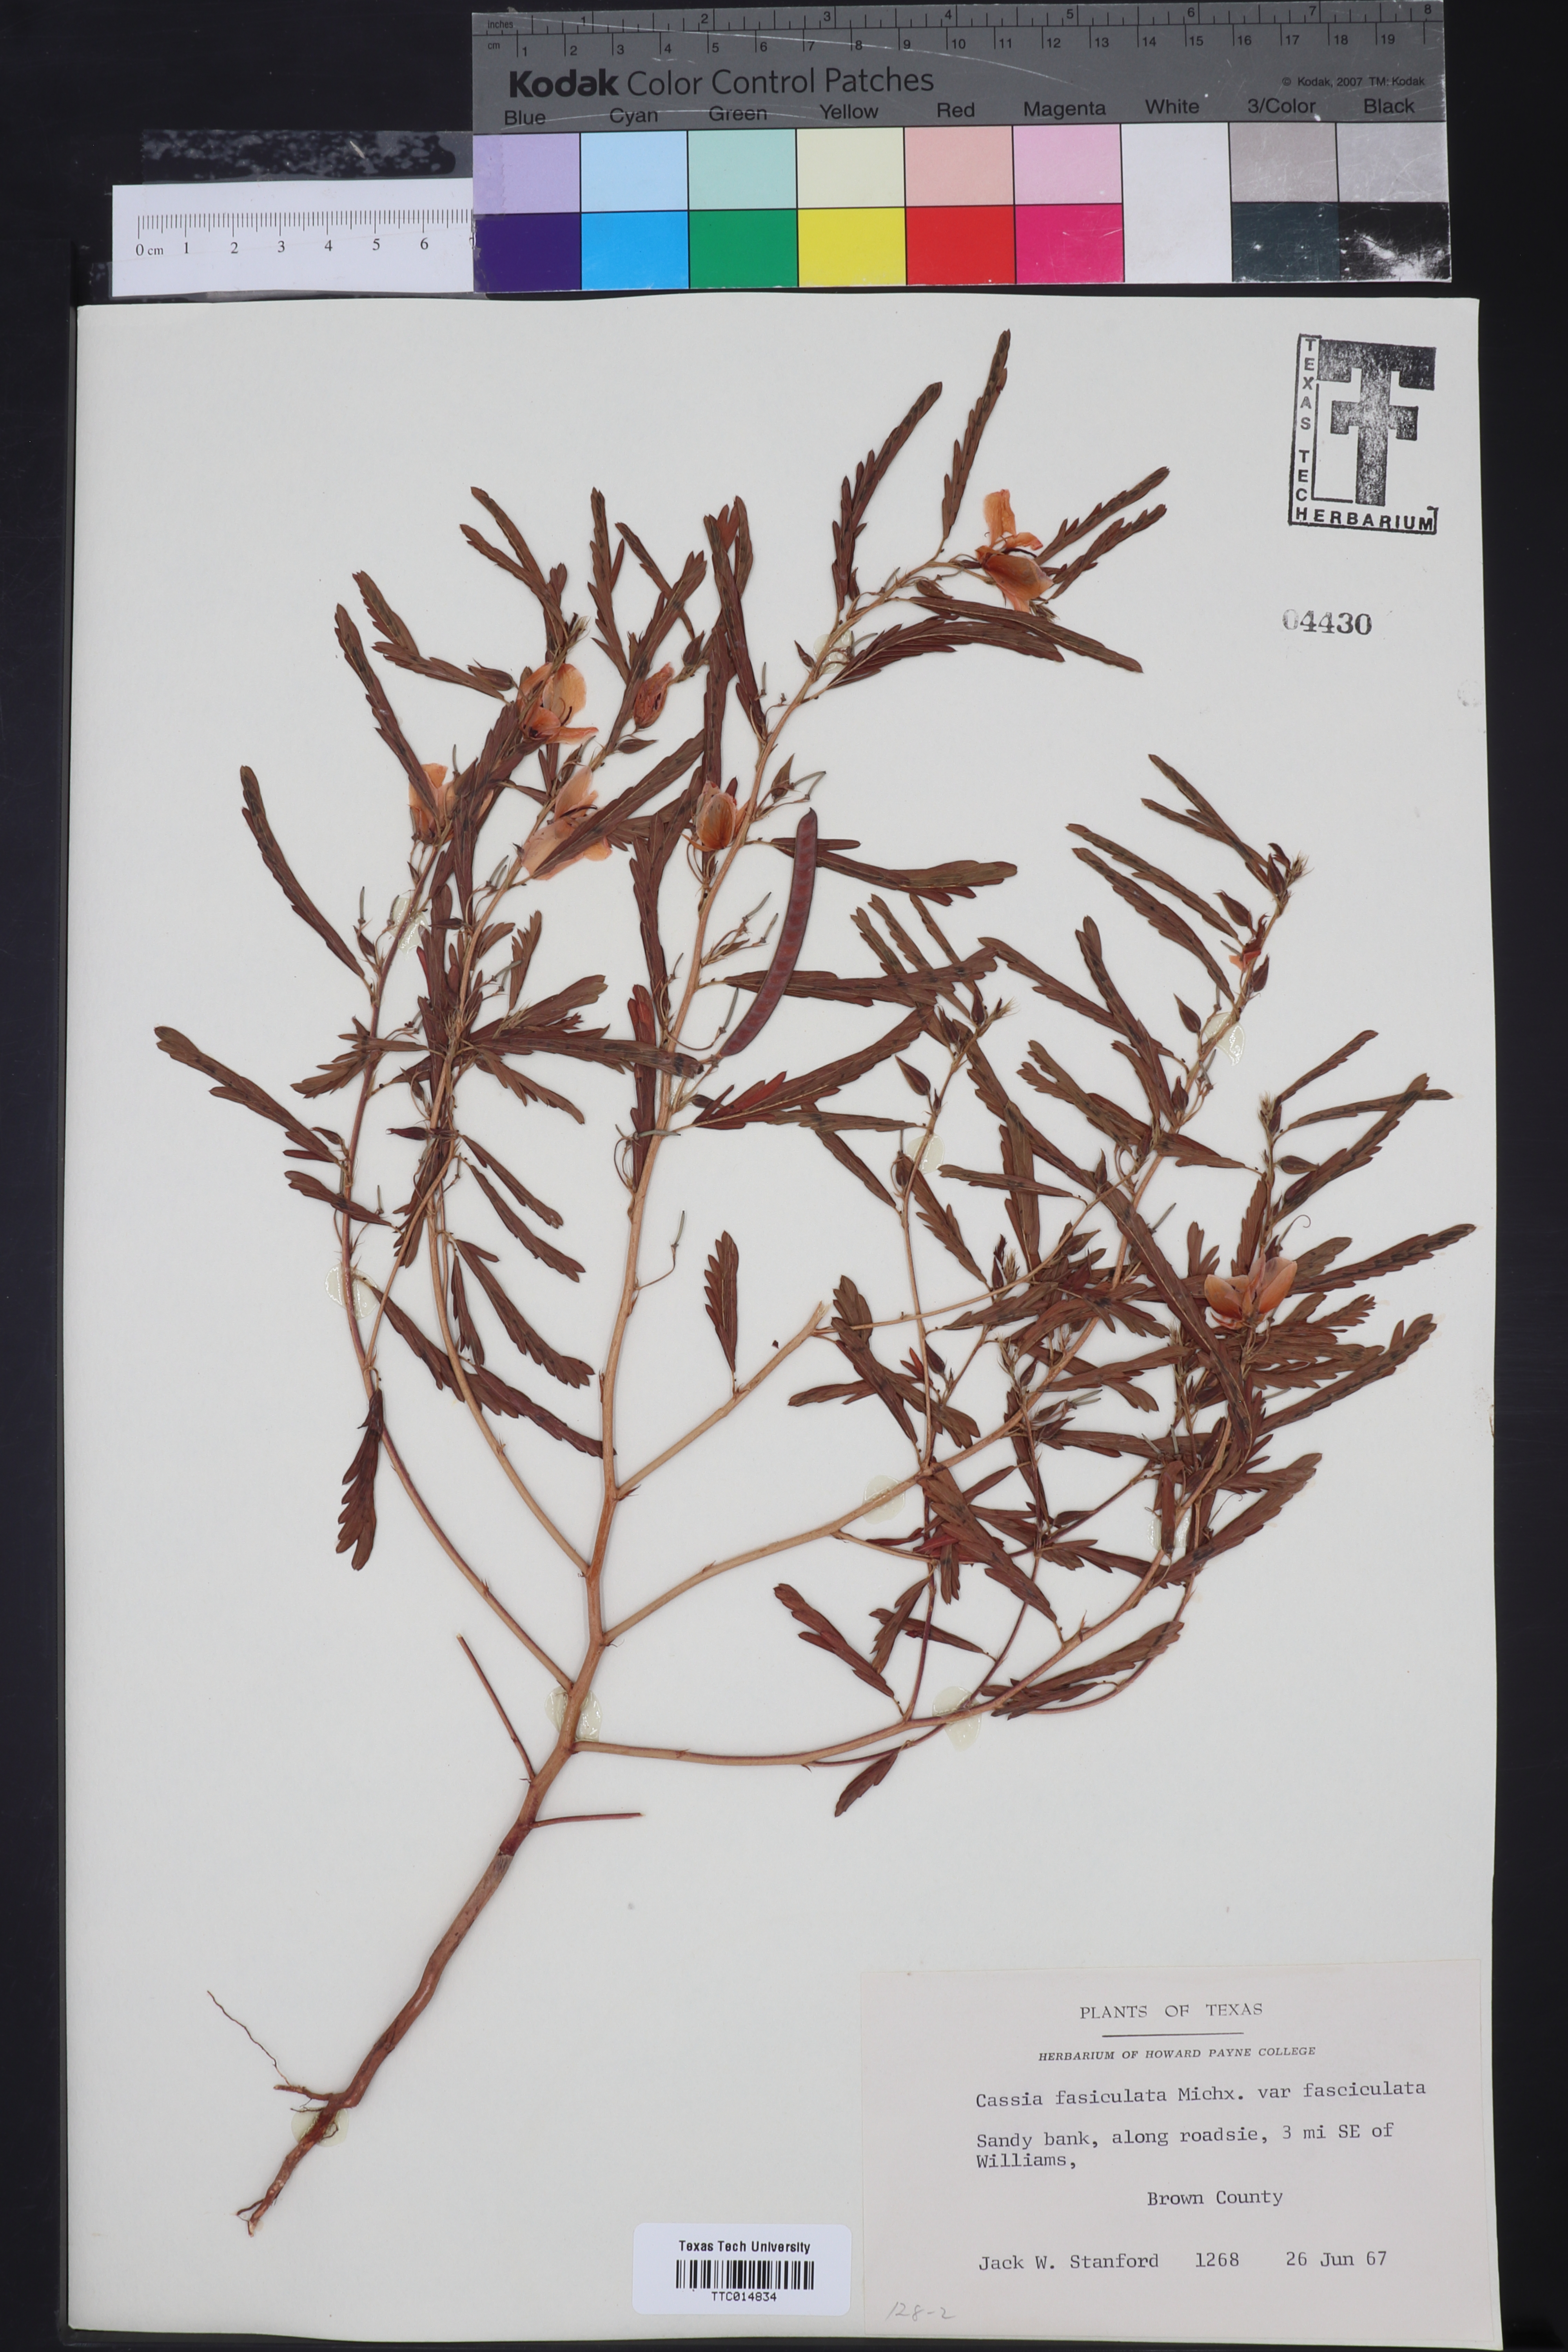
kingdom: Plantae
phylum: Tracheophyta
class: Magnoliopsida
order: Fabales
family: Fabaceae
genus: Chamaecrista
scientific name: Chamaecrista fasciculata
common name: Golden cassia
